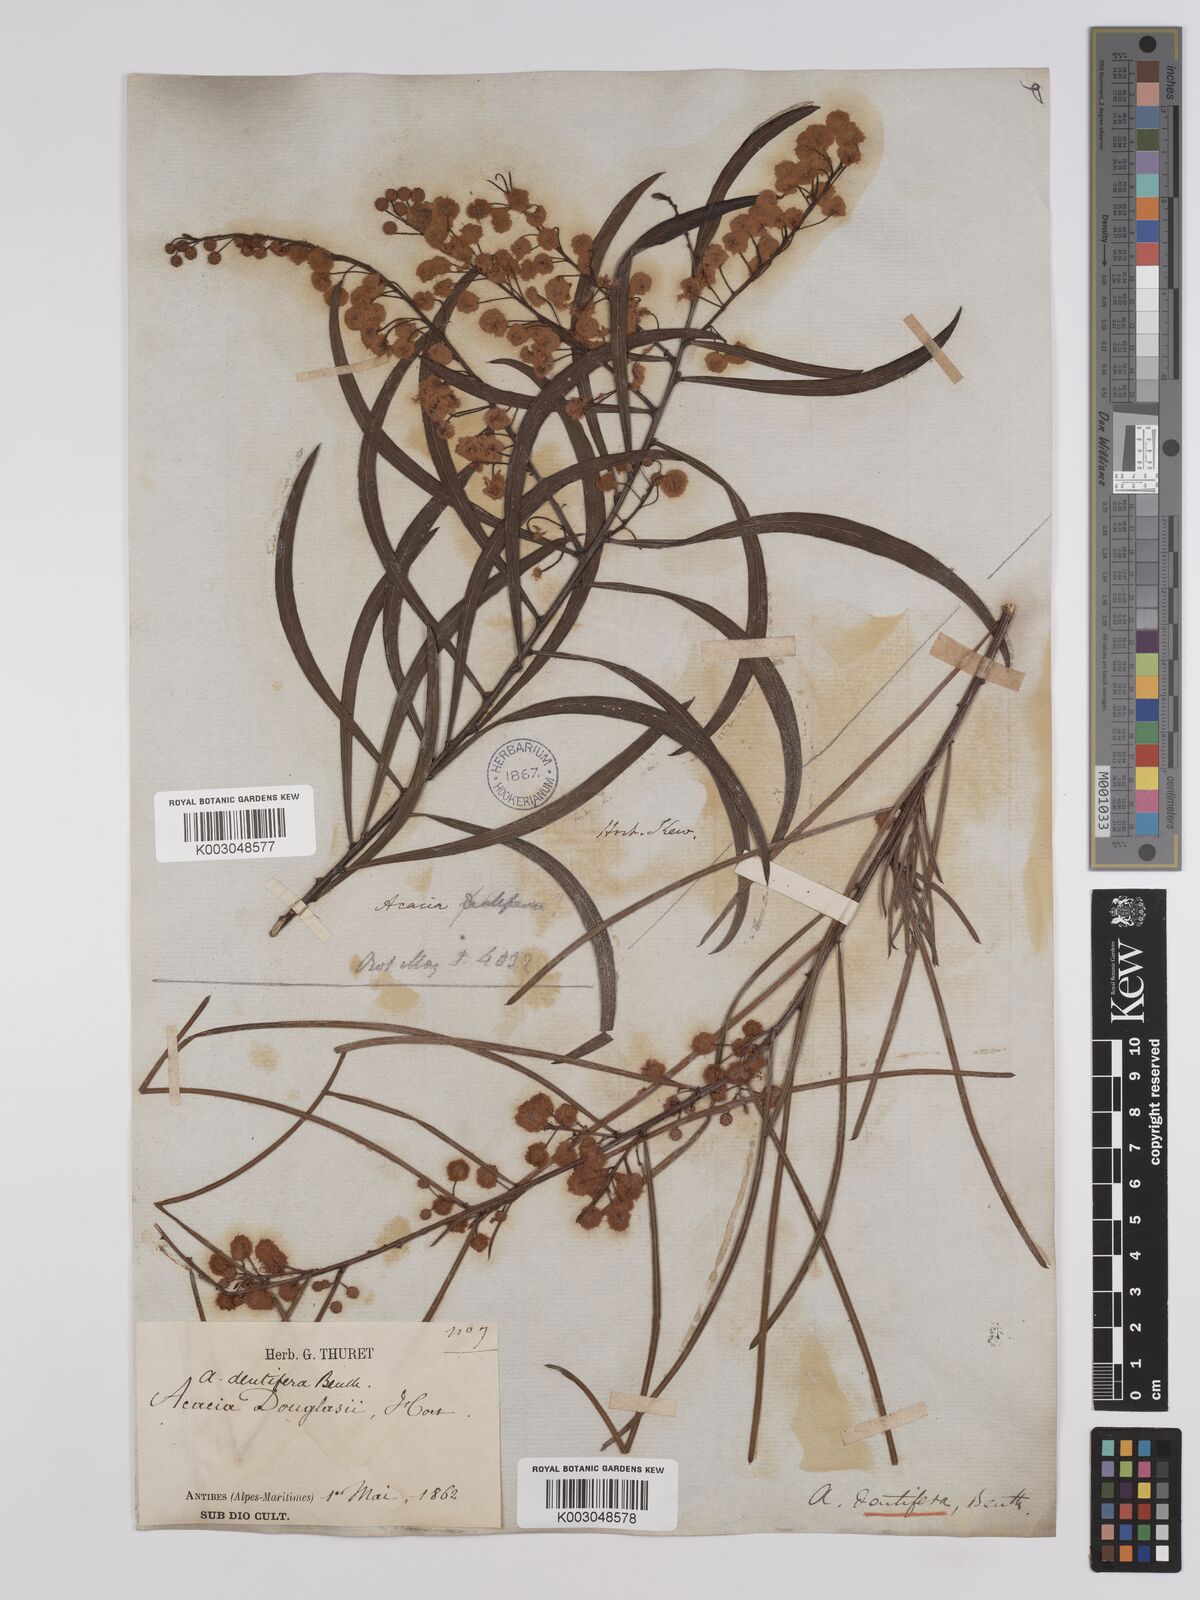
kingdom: Plantae
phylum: Tracheophyta
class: Magnoliopsida
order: Fabales
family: Fabaceae
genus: Acacia
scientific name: Acacia dentifera
